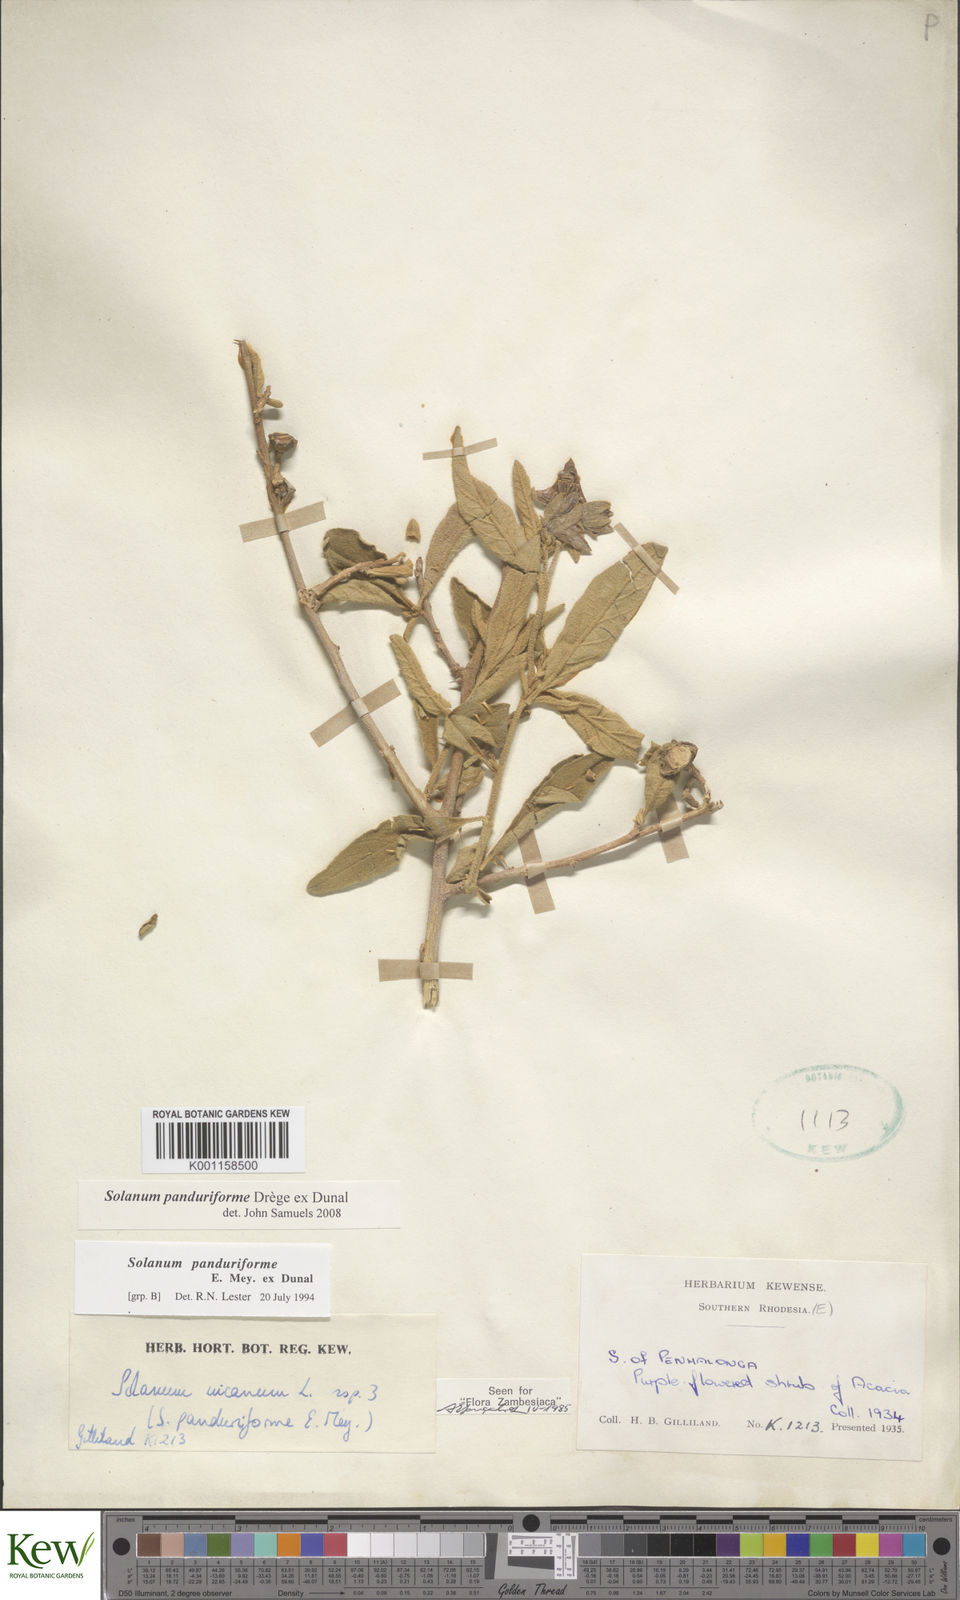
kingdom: Plantae
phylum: Tracheophyta
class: Magnoliopsida
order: Solanales
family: Solanaceae
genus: Solanum
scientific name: Solanum campylacanthum
